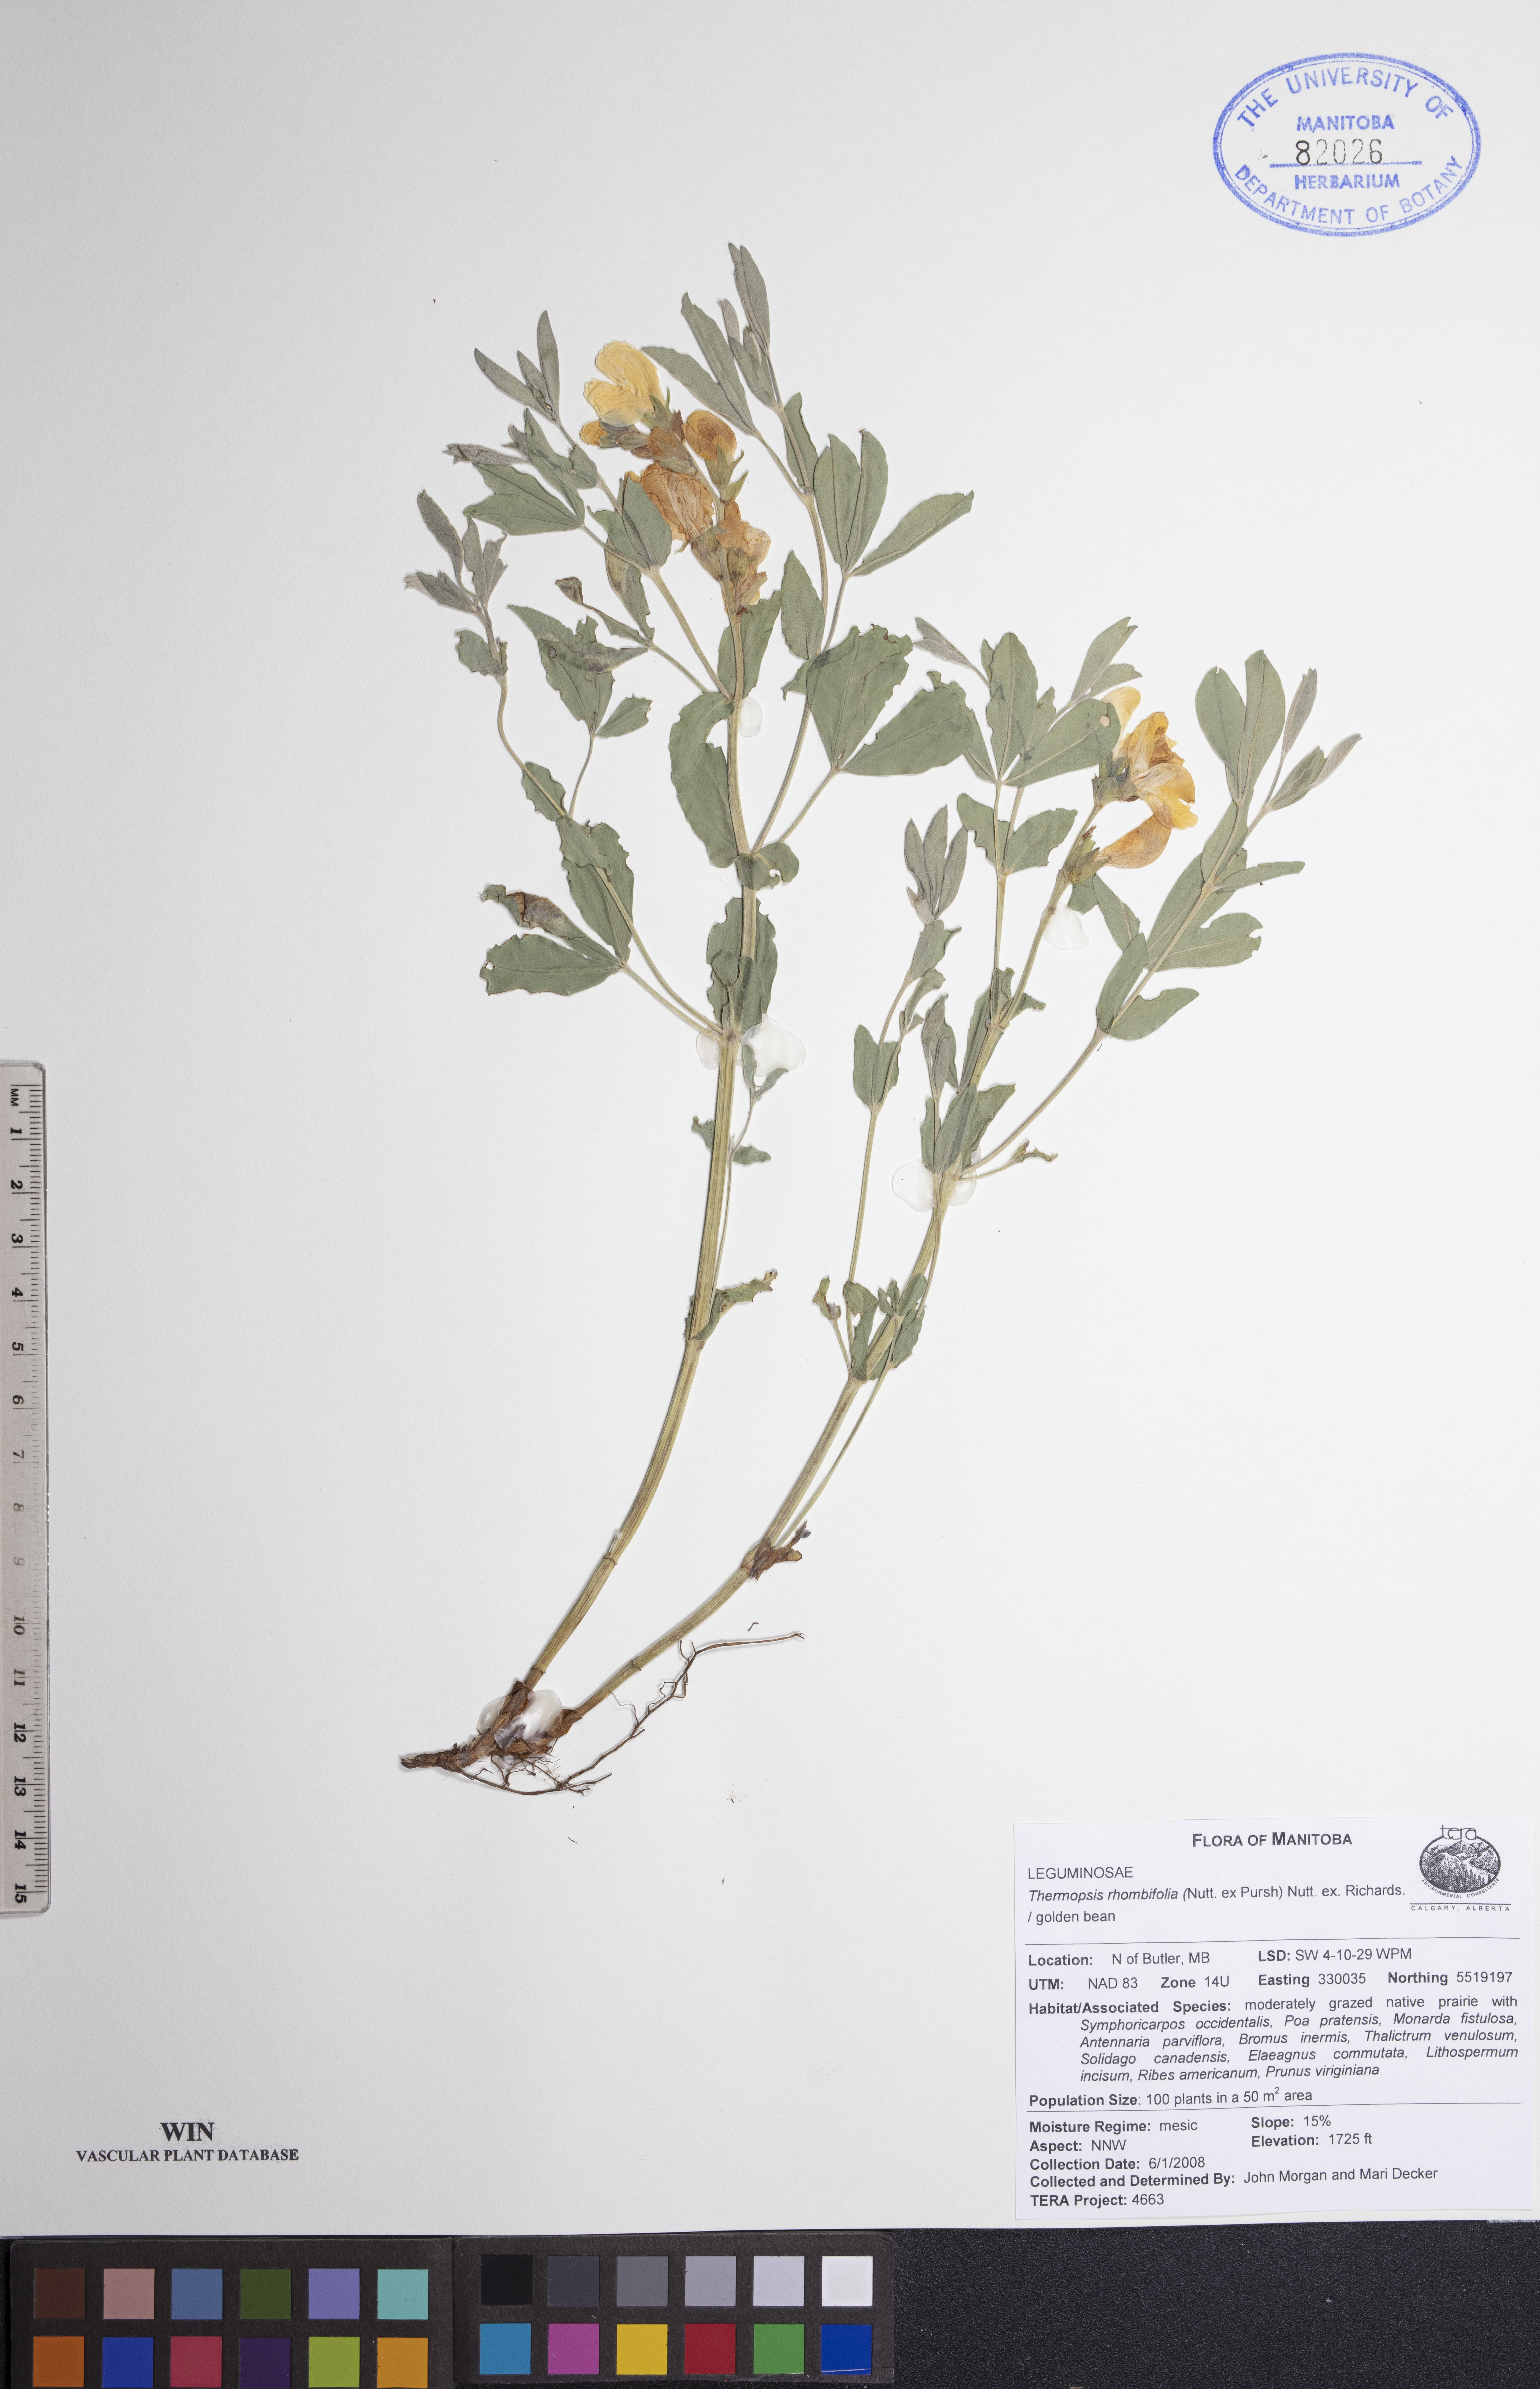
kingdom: Plantae
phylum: Tracheophyta
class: Magnoliopsida
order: Fabales
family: Fabaceae
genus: Thermopsis
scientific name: Thermopsis rhombifolia
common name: Circle-pod-pea
